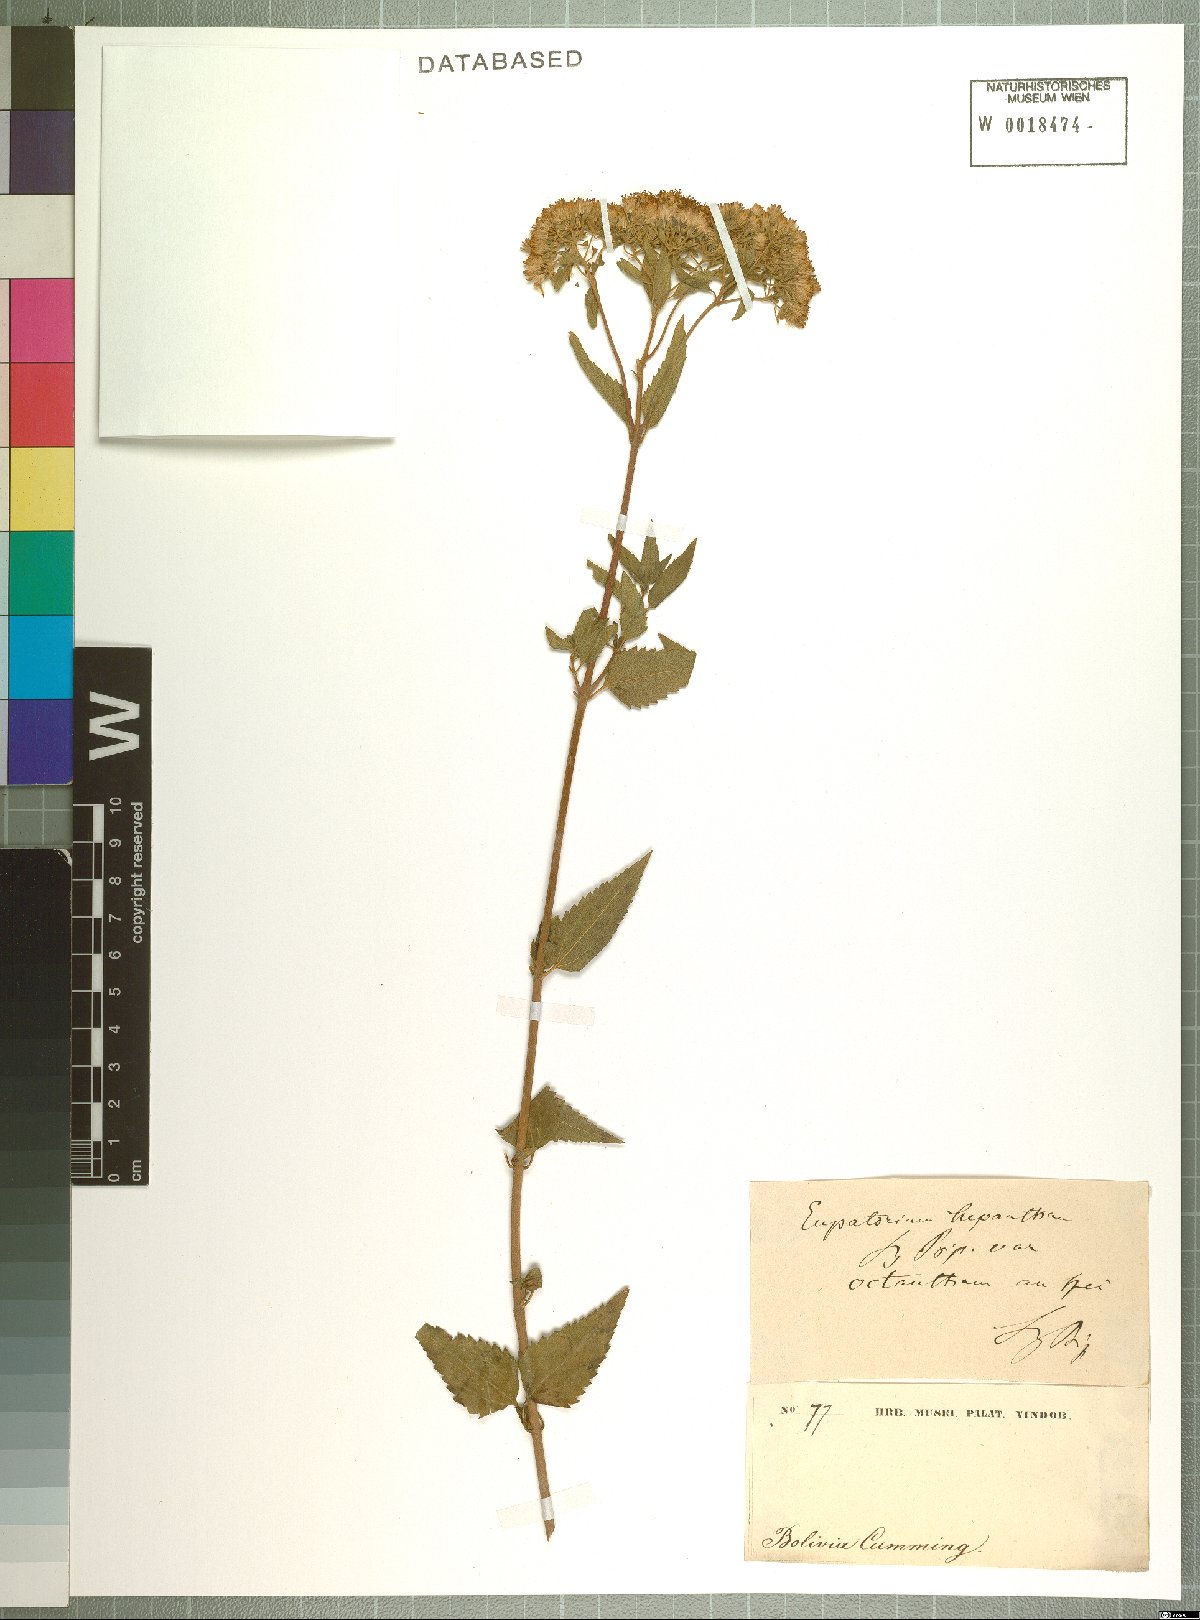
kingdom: Plantae
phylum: Tracheophyta
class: Magnoliopsida
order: Asterales
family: Asteraceae
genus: Ophryosporus
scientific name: Ophryosporus heptanthus
